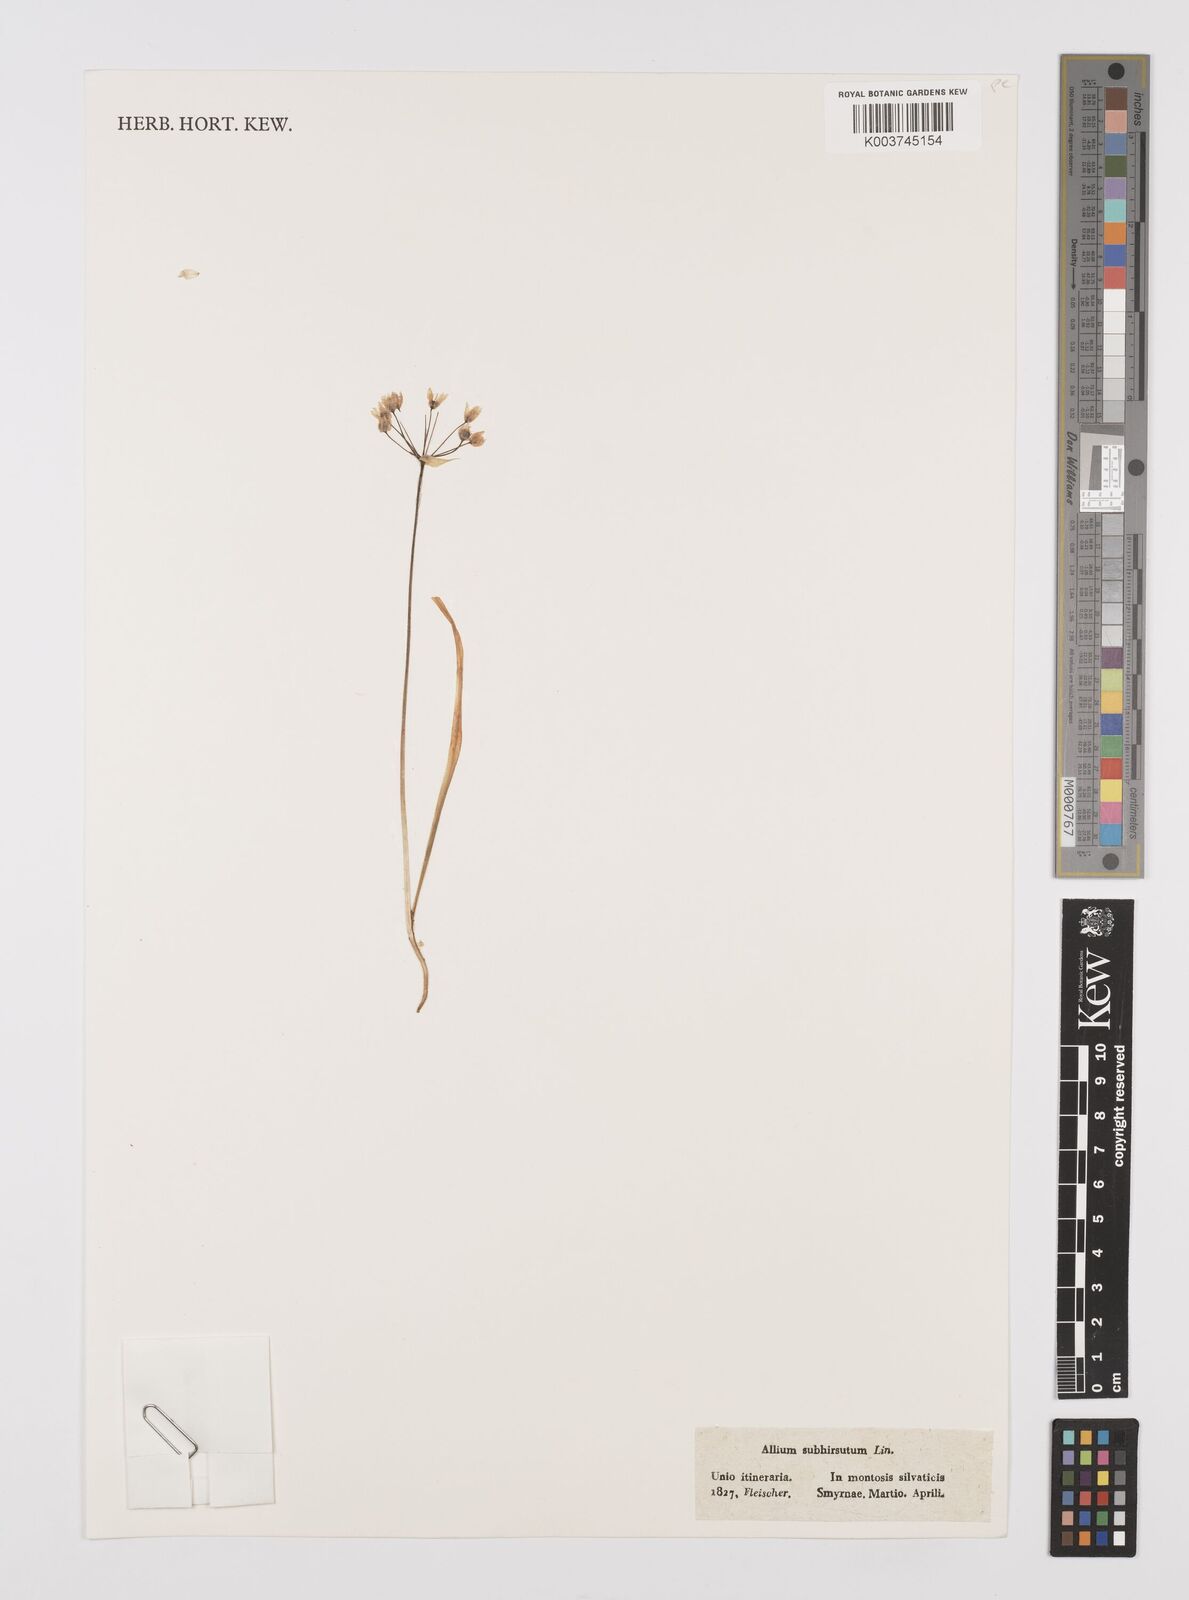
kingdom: Plantae
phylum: Tracheophyta
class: Liliopsida
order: Asparagales
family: Amaryllidaceae
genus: Allium
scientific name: Allium subhirsutum
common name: Hairy garlic
